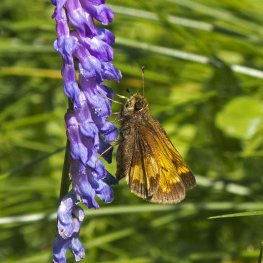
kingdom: Animalia
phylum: Arthropoda
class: Insecta
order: Lepidoptera
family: Hesperiidae
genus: Lon
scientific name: Lon hobomok
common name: Hobomok Skipper
